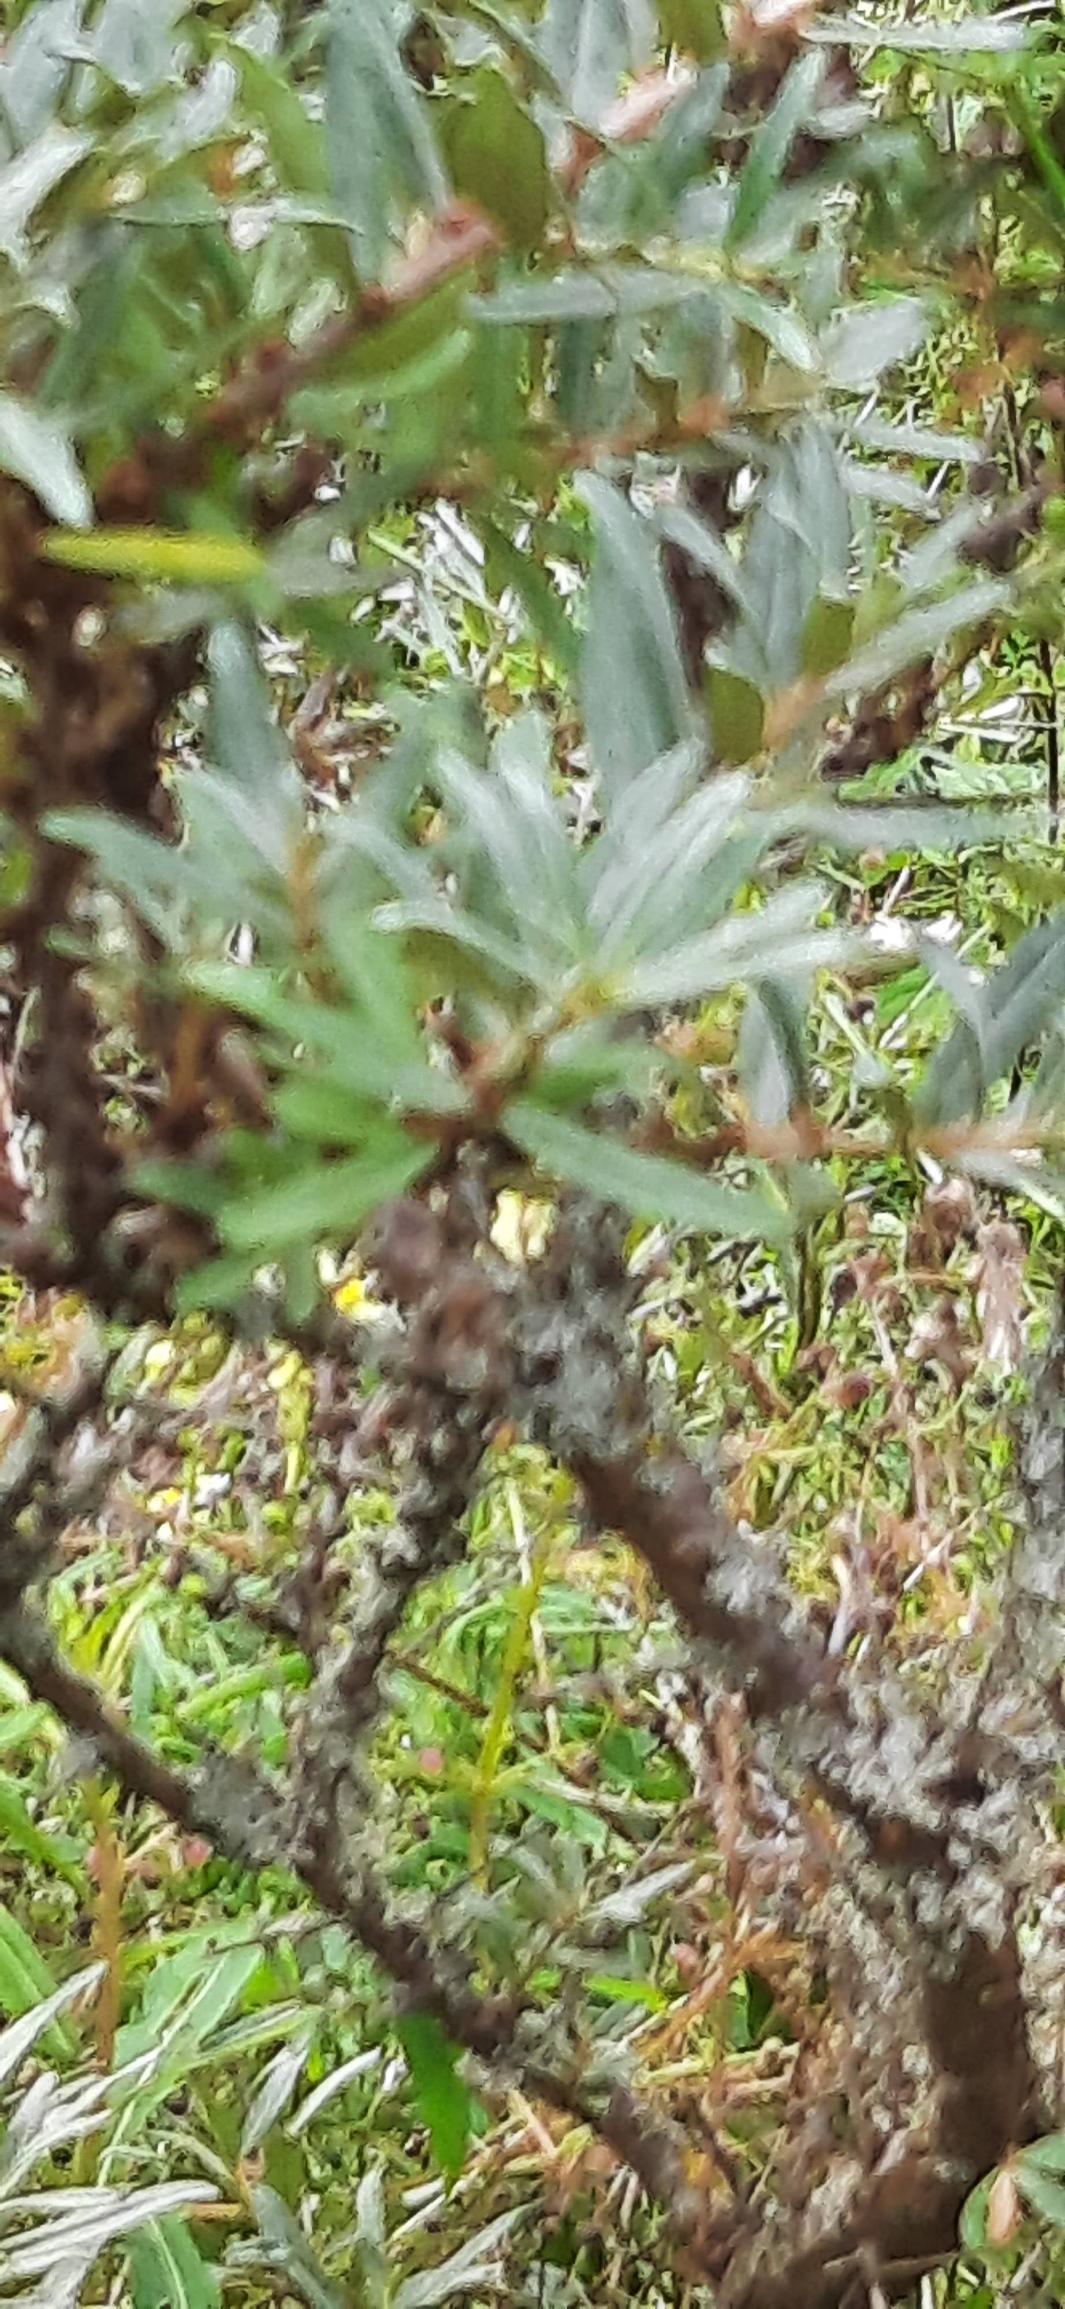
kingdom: Plantae
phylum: Tracheophyta
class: Magnoliopsida
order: Rosales
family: Elaeagnaceae
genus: Hippophae
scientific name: Hippophae rhamnoides
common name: Havtorn
